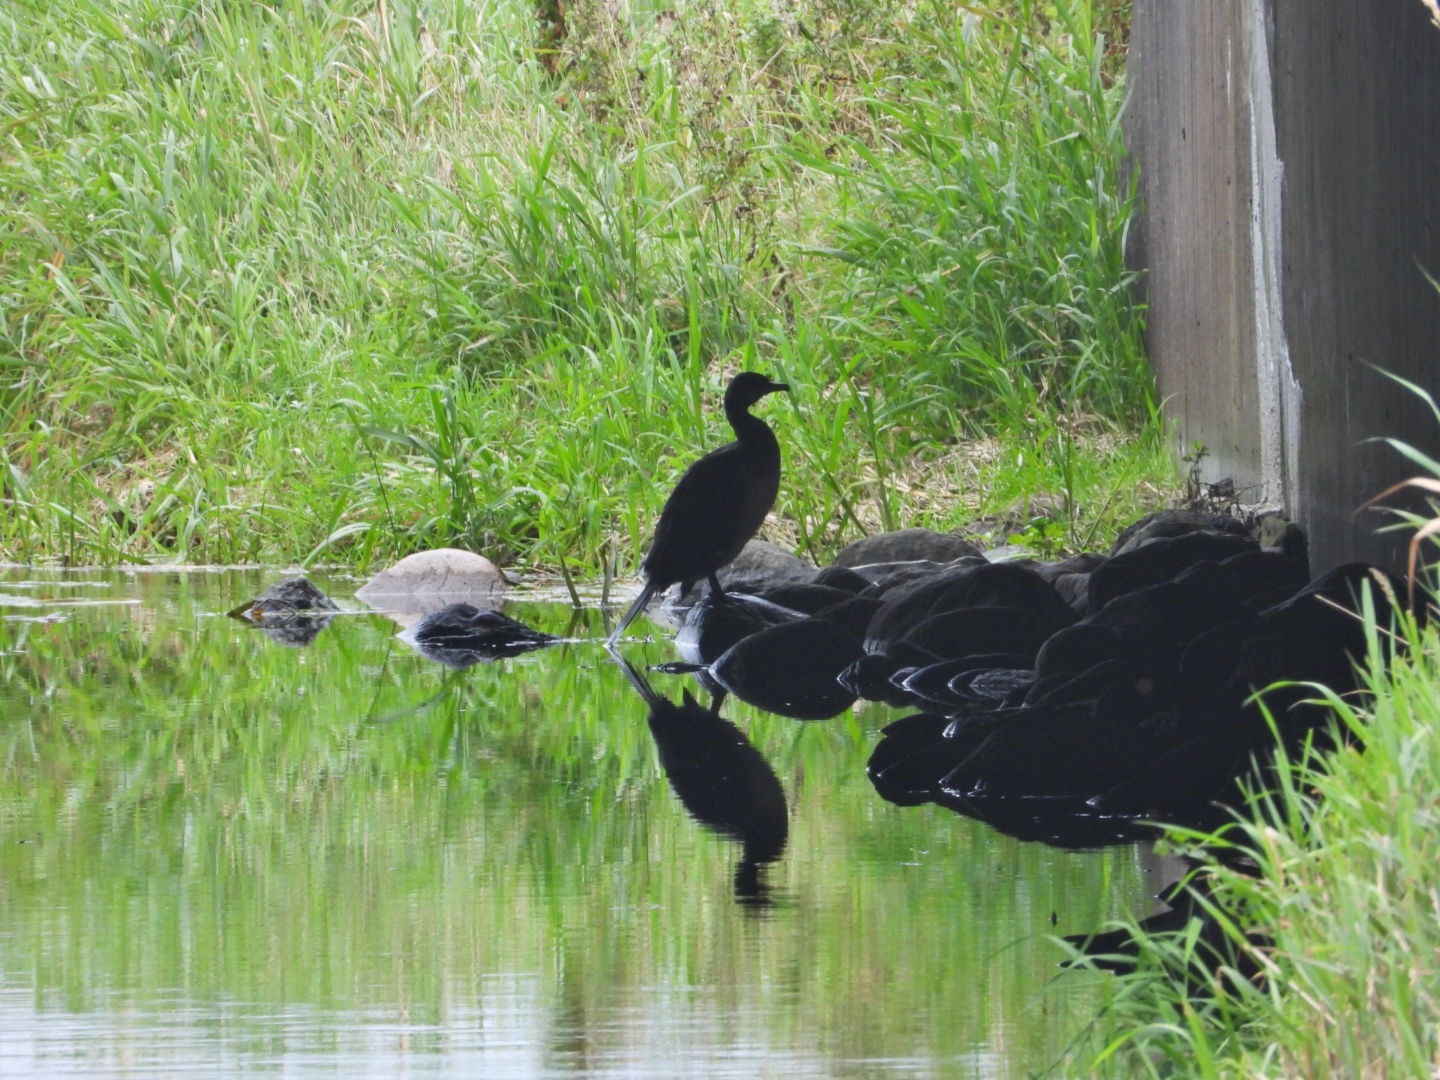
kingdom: Animalia
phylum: Chordata
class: Aves
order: Suliformes
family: Phalacrocoracidae
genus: Phalacrocorax
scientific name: Phalacrocorax carbo
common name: Skarv
